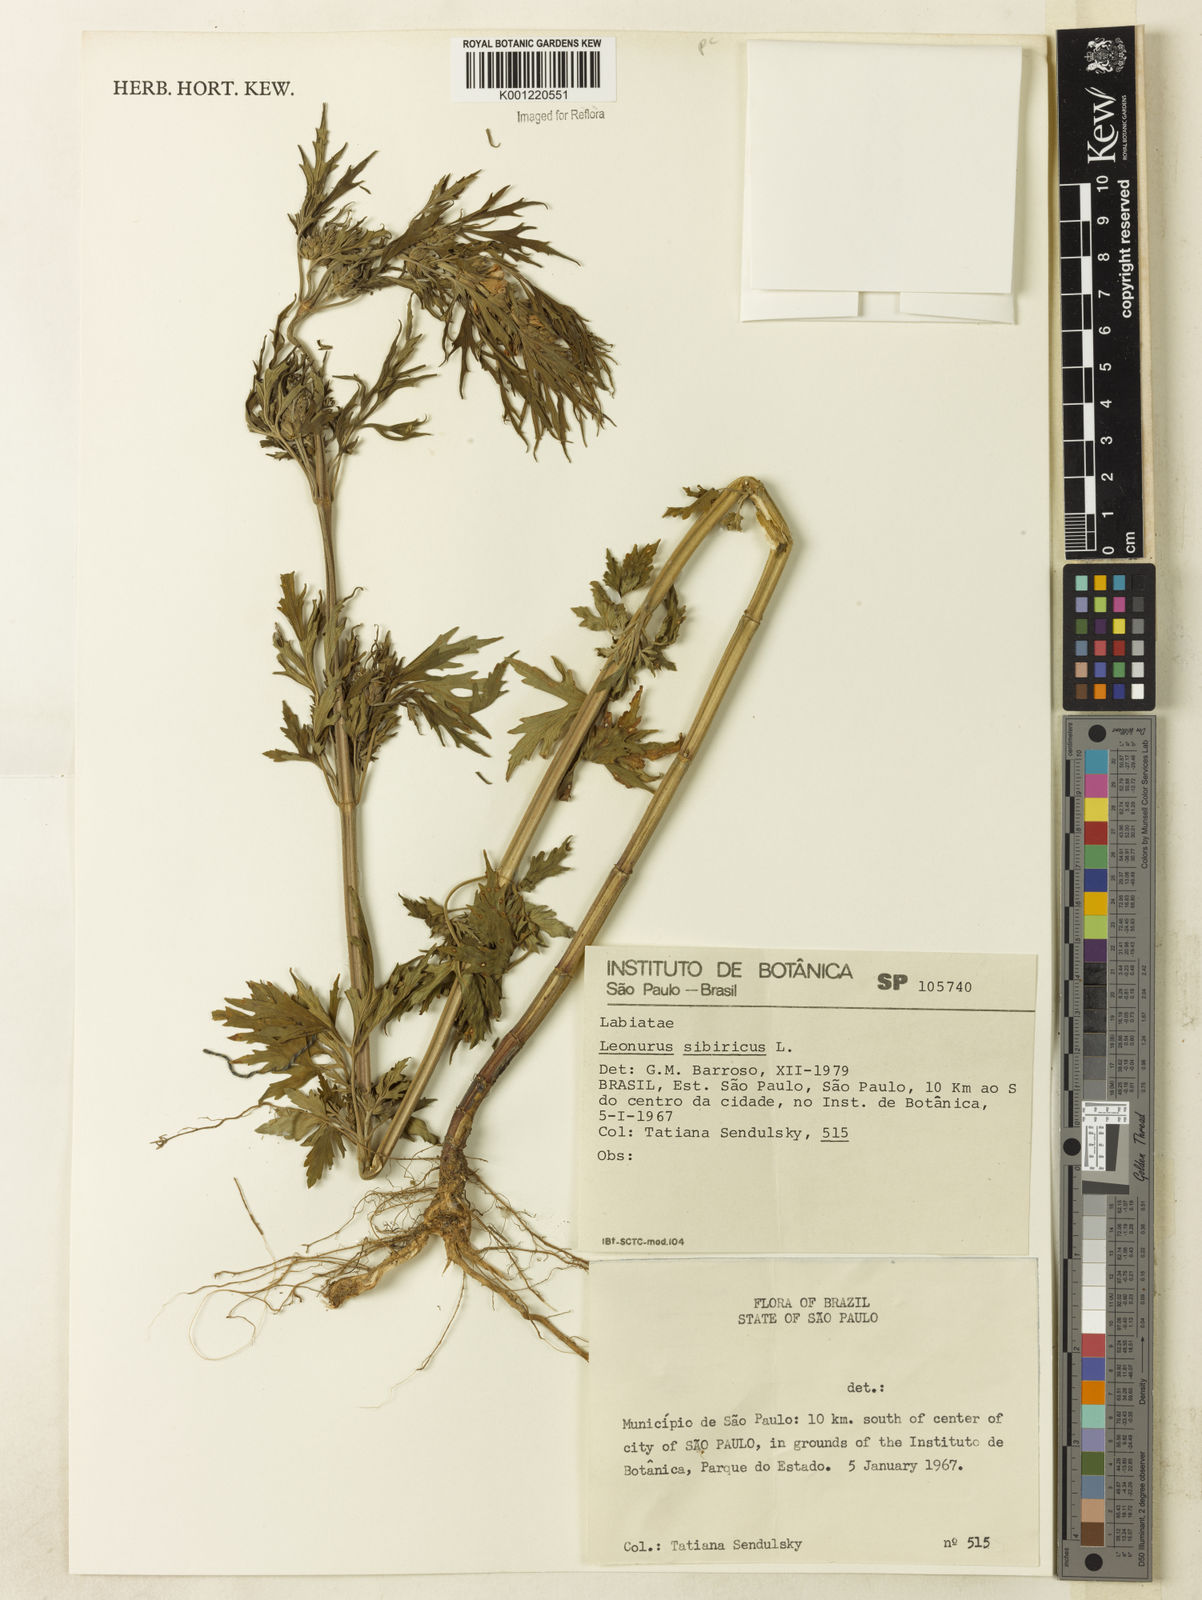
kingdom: Plantae
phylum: Tracheophyta
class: Magnoliopsida
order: Lamiales
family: Lamiaceae
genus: Leonurus
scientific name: Leonurus japonicus
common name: Honeyweed
